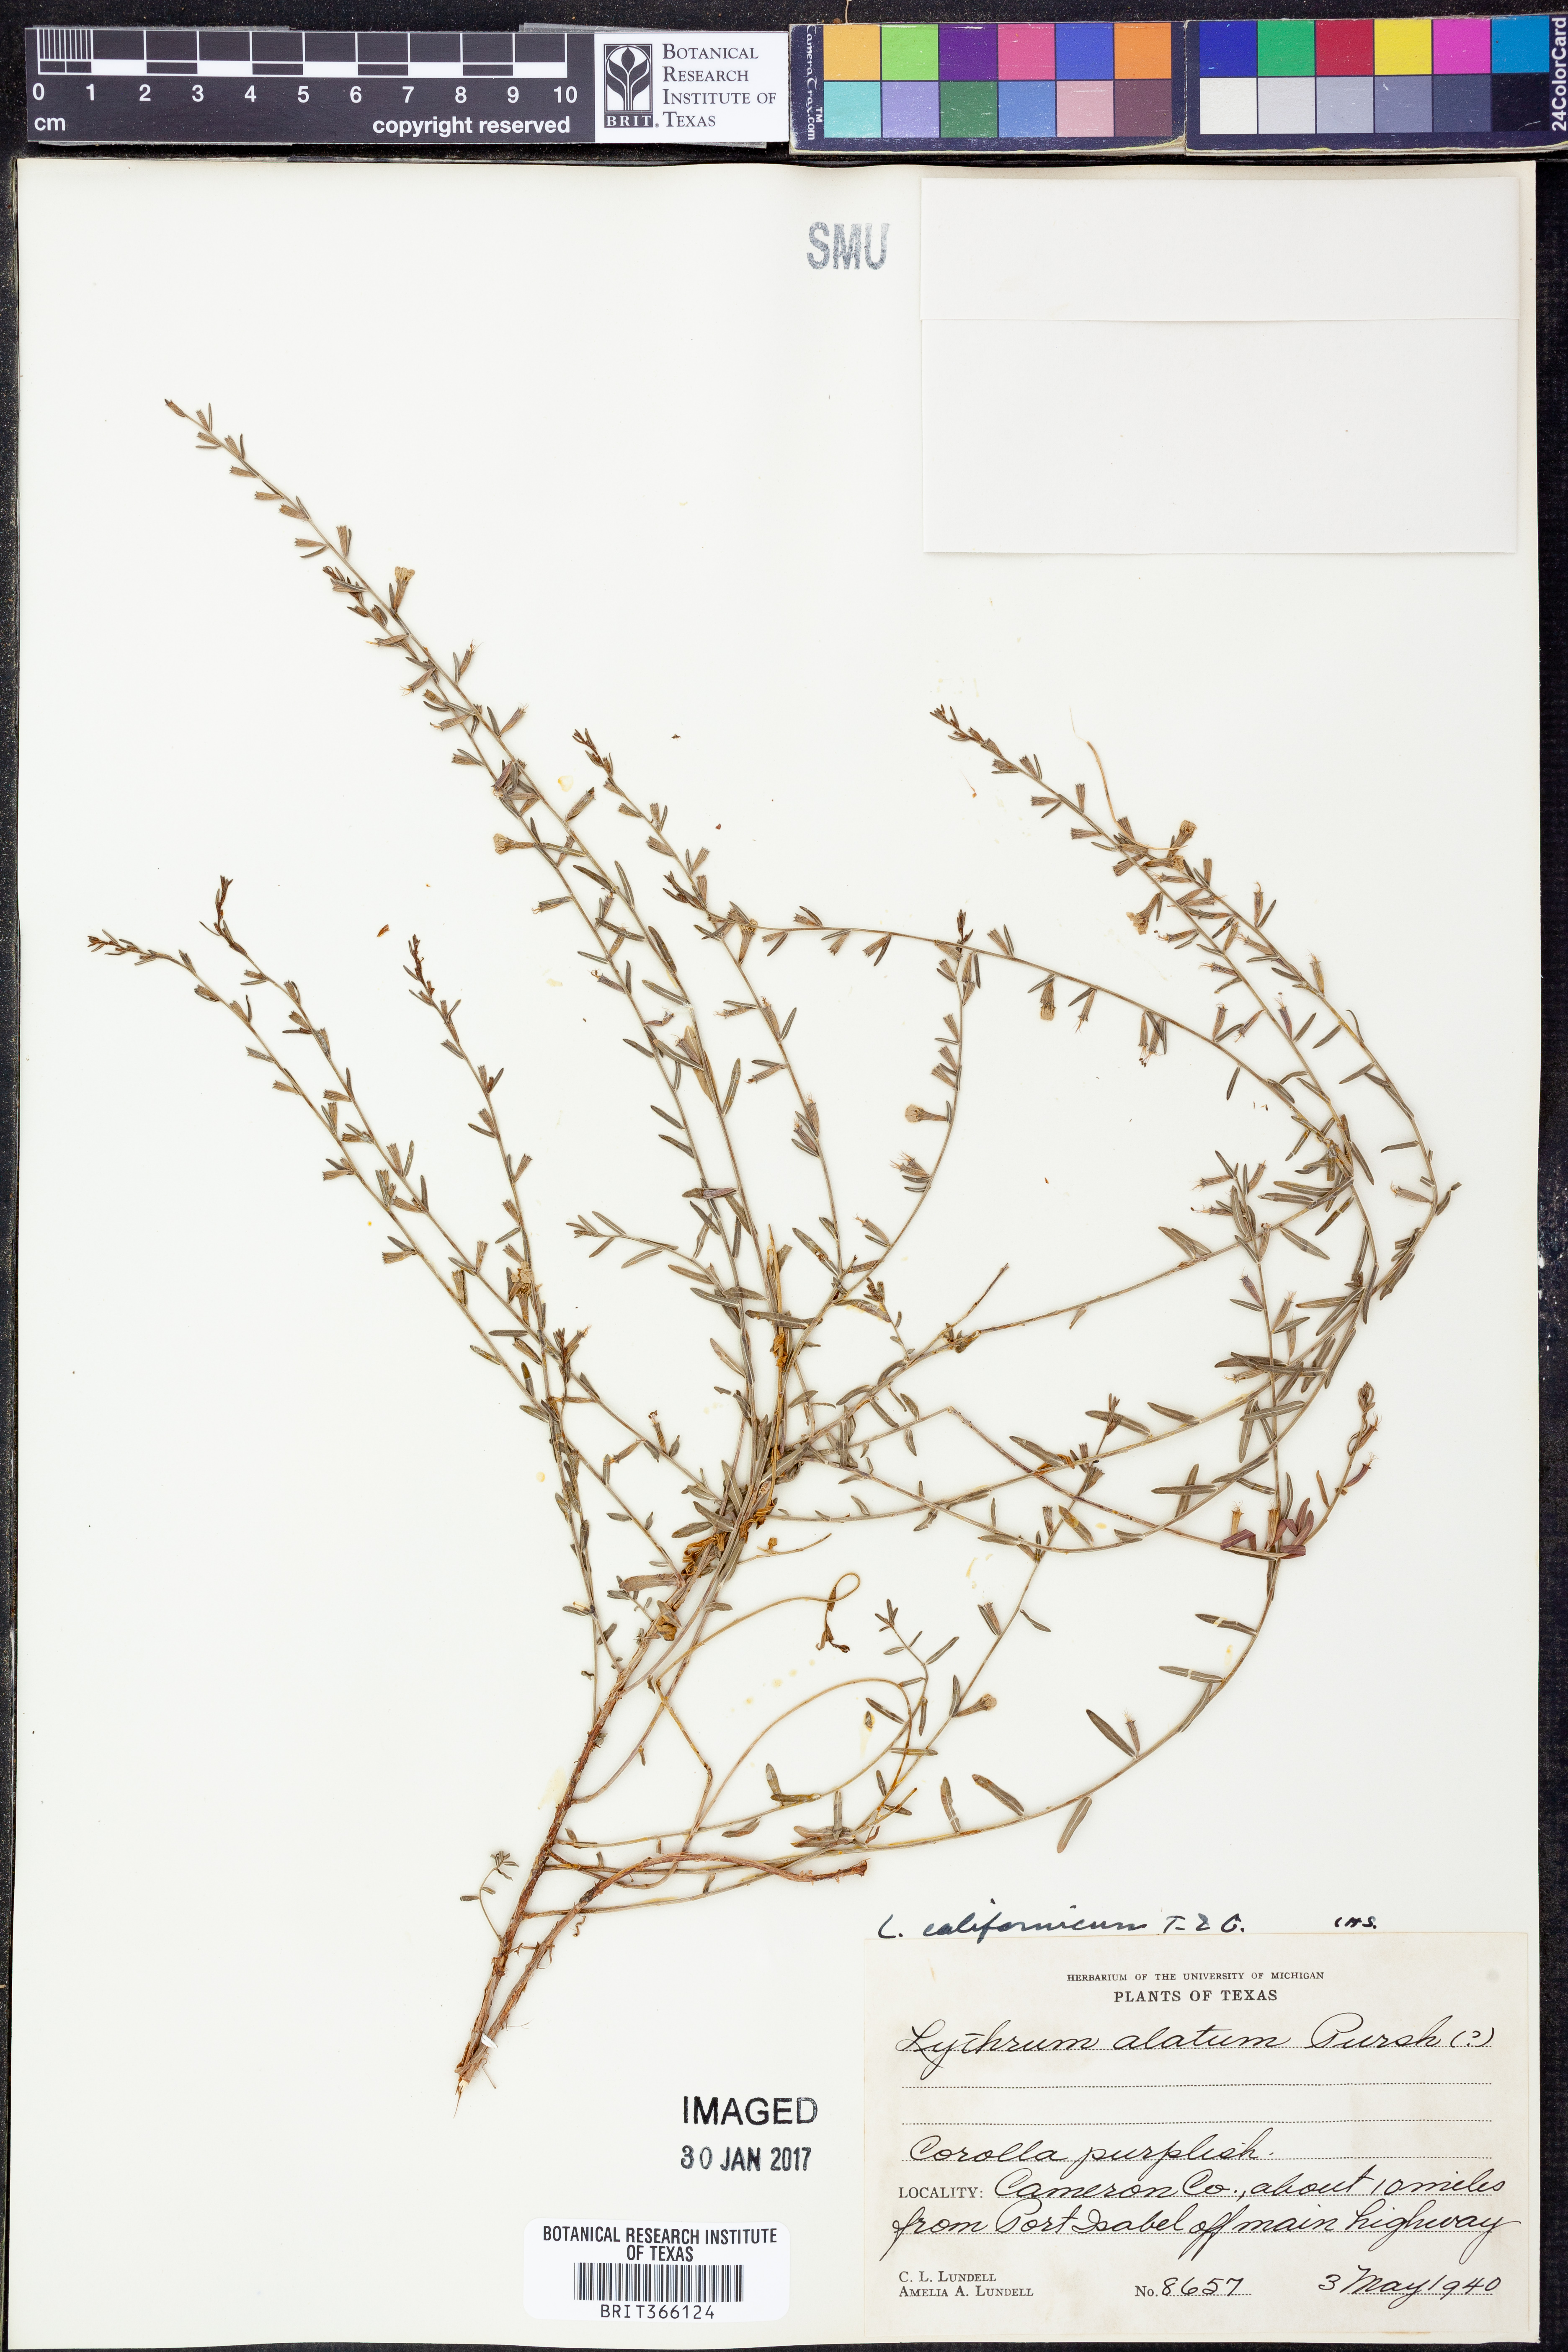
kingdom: Plantae
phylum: Tracheophyta
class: Magnoliopsida
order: Myrtales
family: Lythraceae
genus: Lythrum
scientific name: Lythrum californicum
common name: California loosestrife
